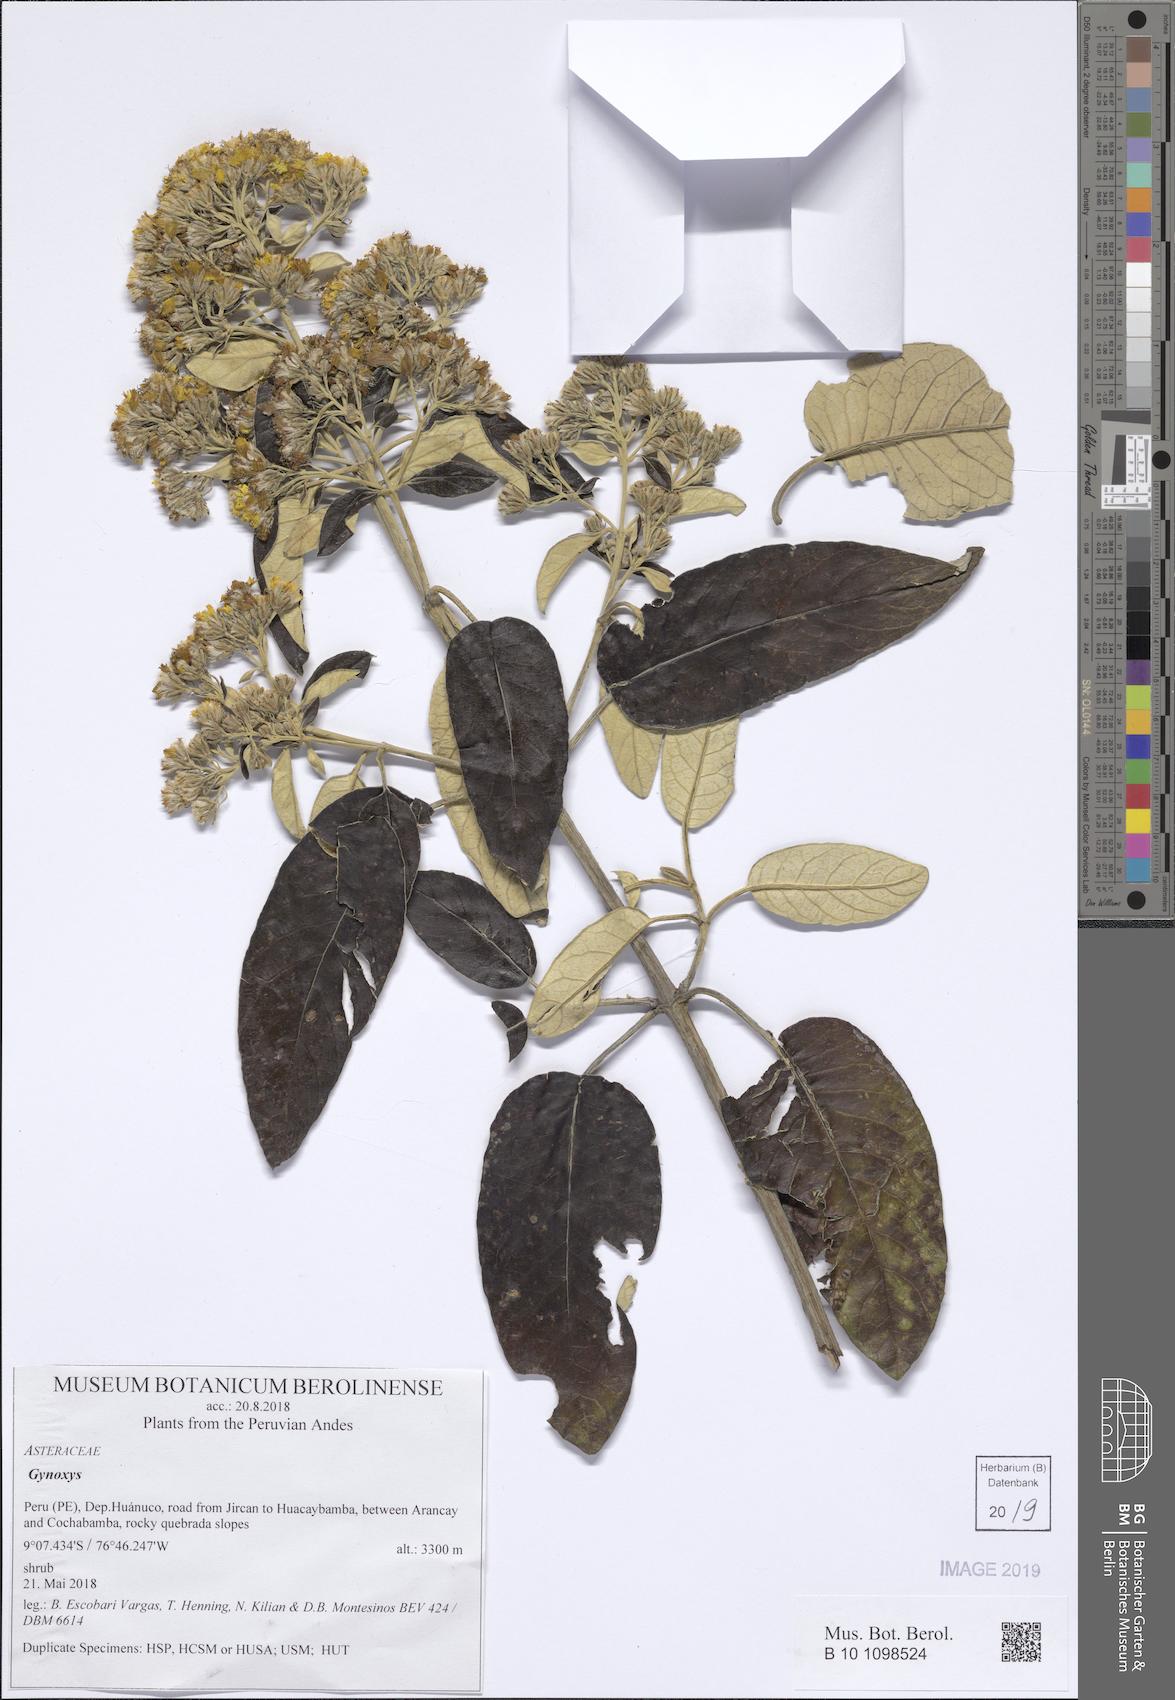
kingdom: Plantae
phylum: Tracheophyta
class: Magnoliopsida
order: Asterales
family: Asteraceae
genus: Gynoxys
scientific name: Gynoxys
